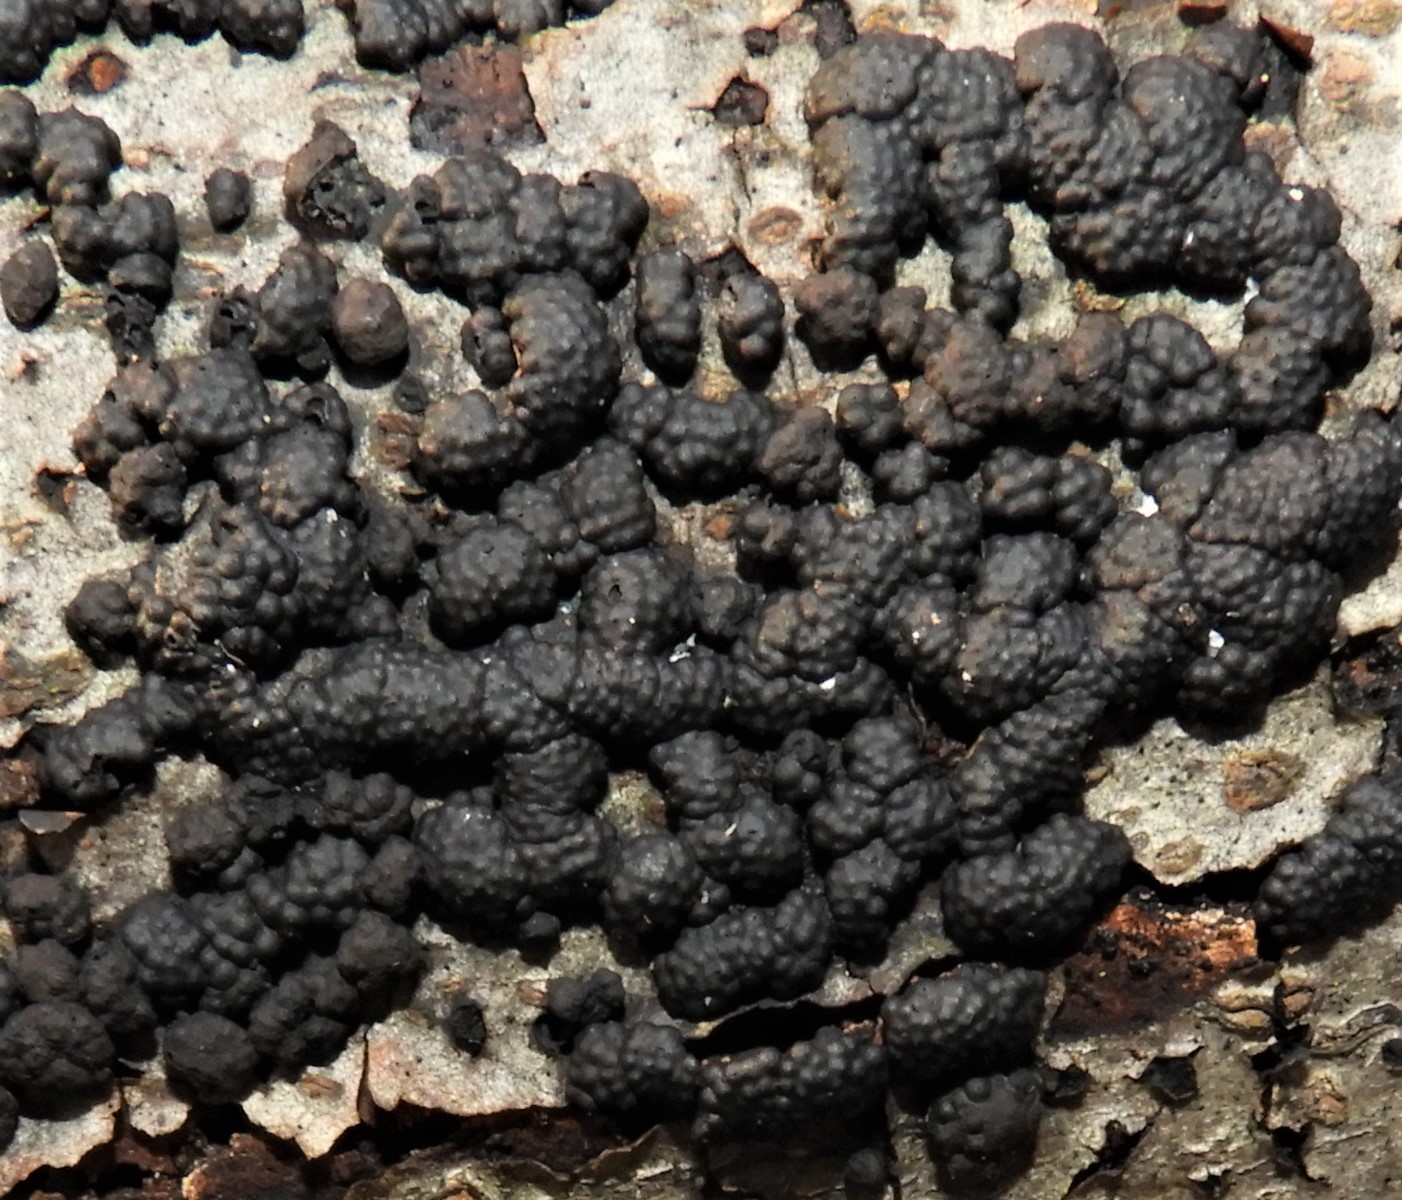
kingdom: Fungi
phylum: Ascomycota
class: Sordariomycetes
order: Xylariales
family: Hypoxylaceae
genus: Jackrogersella
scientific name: Jackrogersella multiformis
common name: foranderlig kulbær
